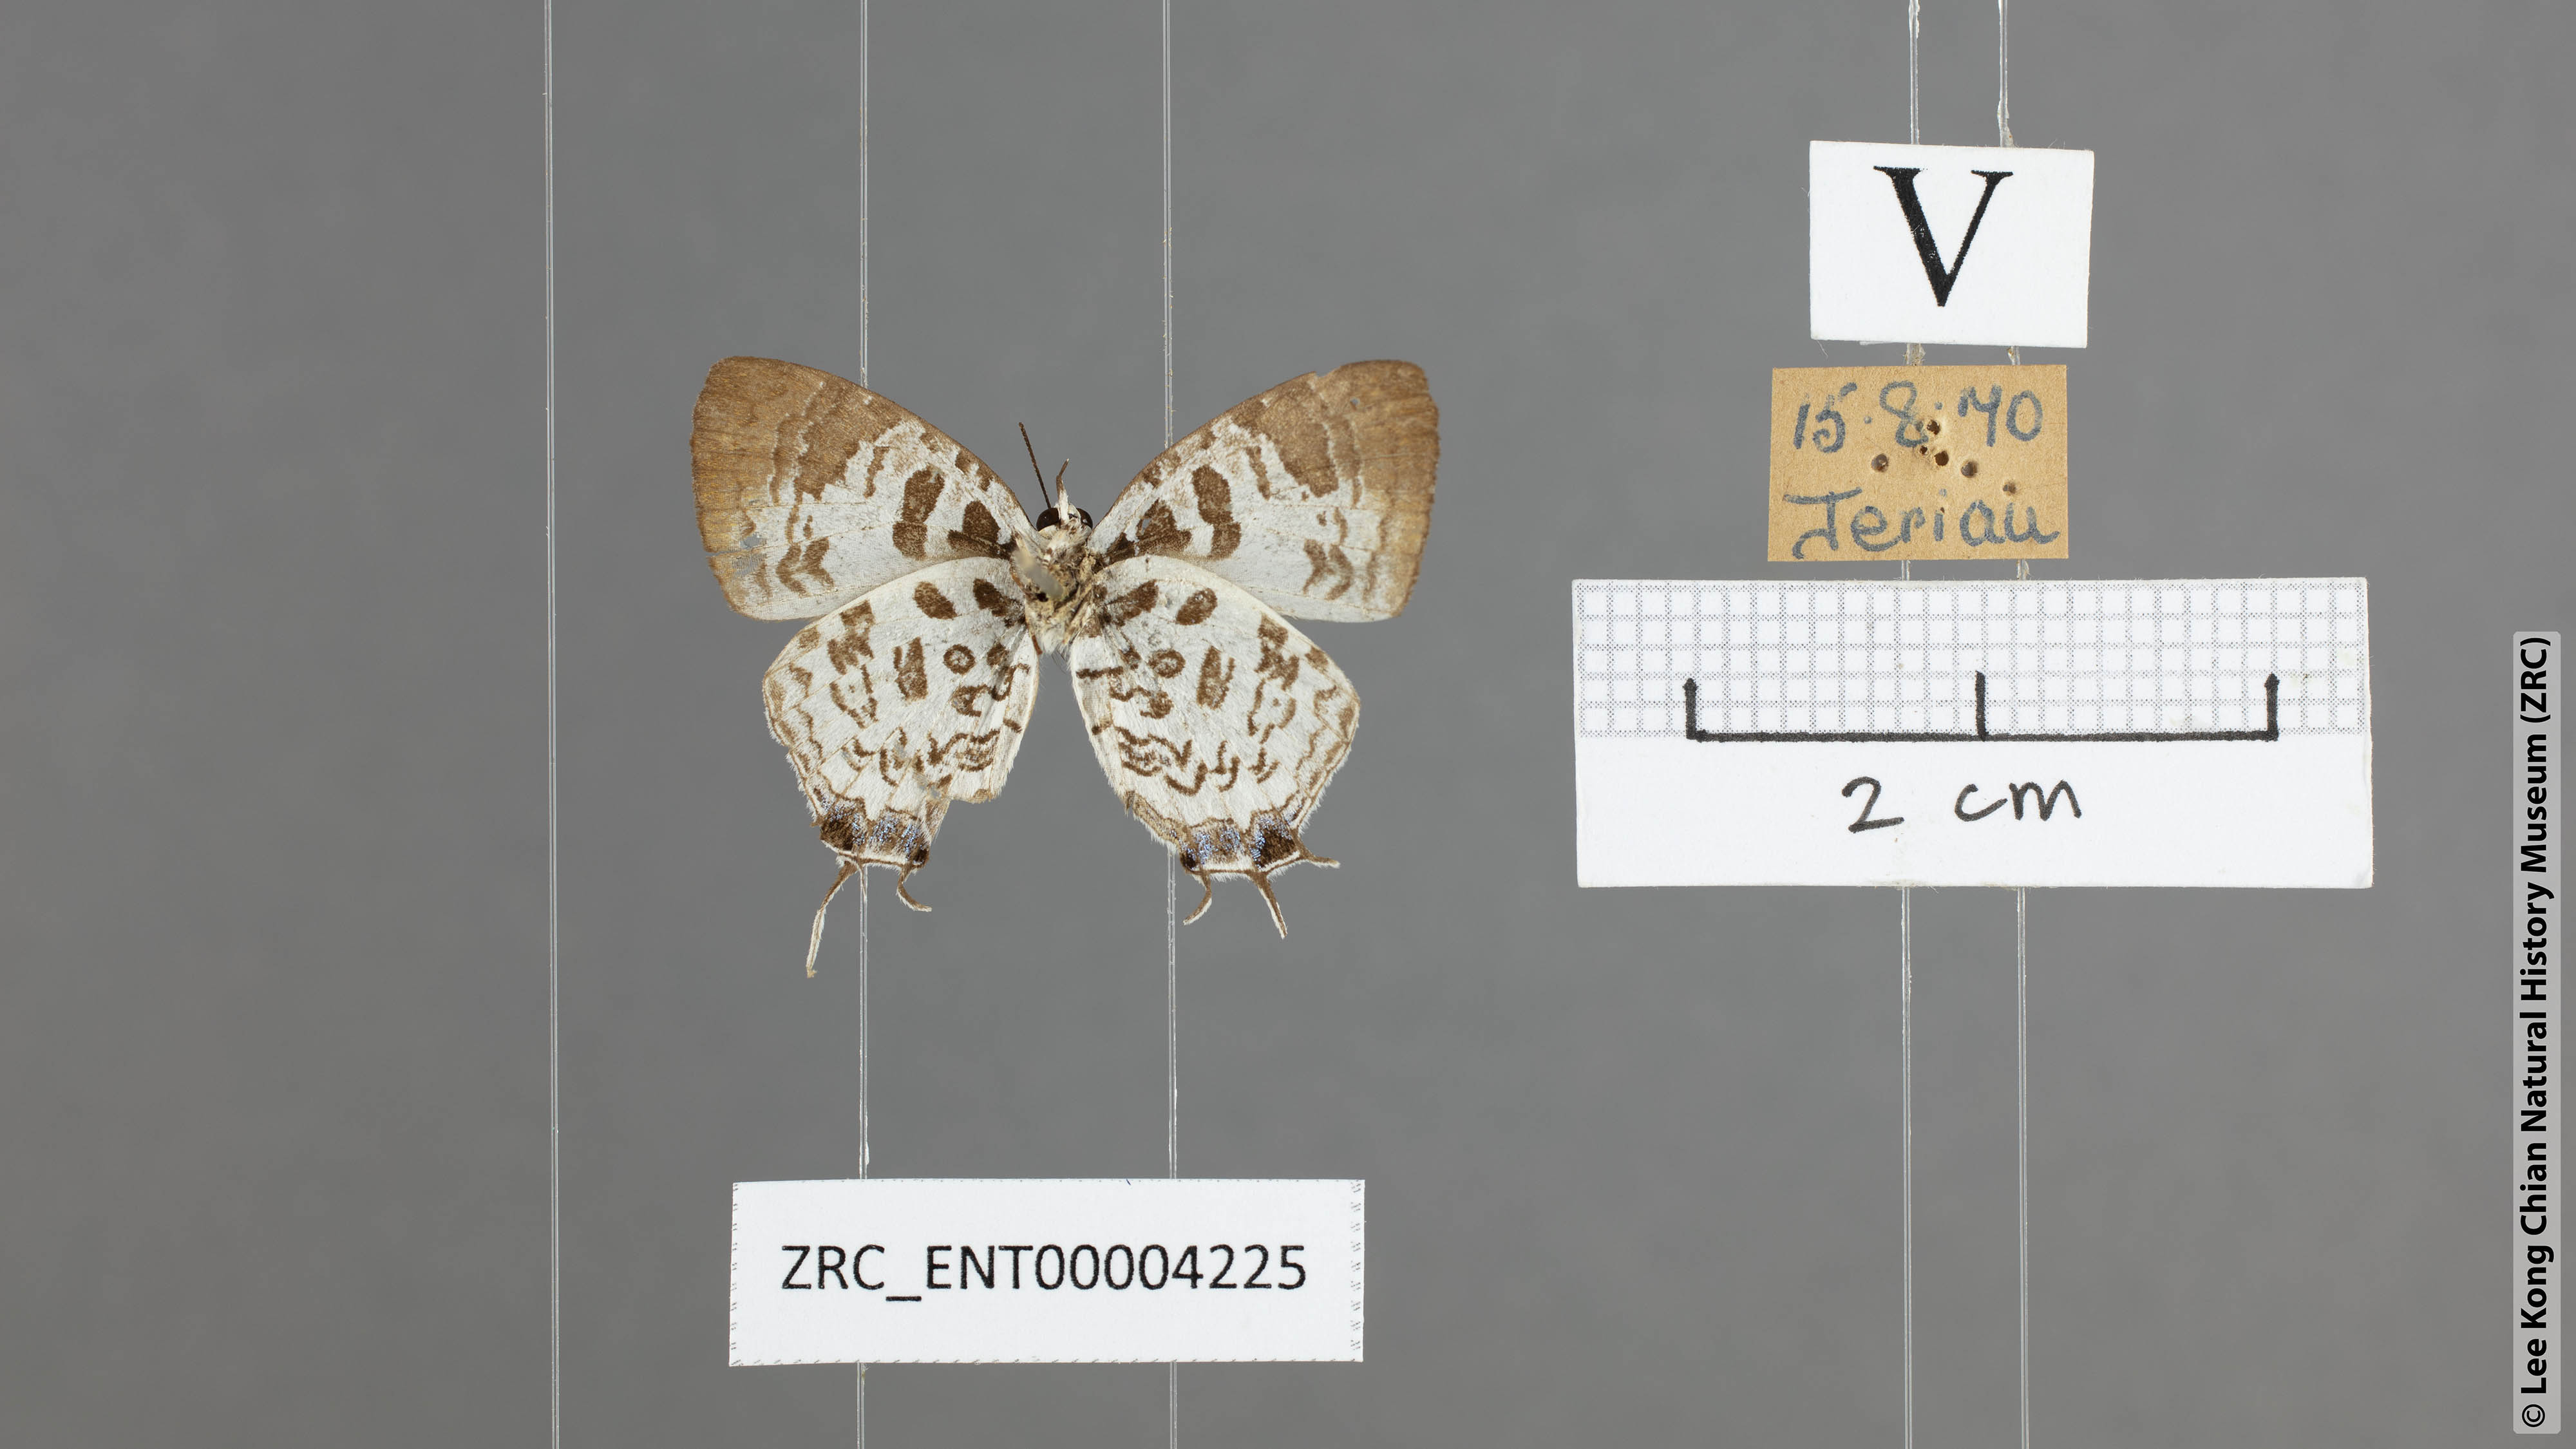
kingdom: Animalia
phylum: Arthropoda
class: Insecta
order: Lepidoptera
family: Lycaenidae
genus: Drupadia
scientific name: Drupadia scaeva
